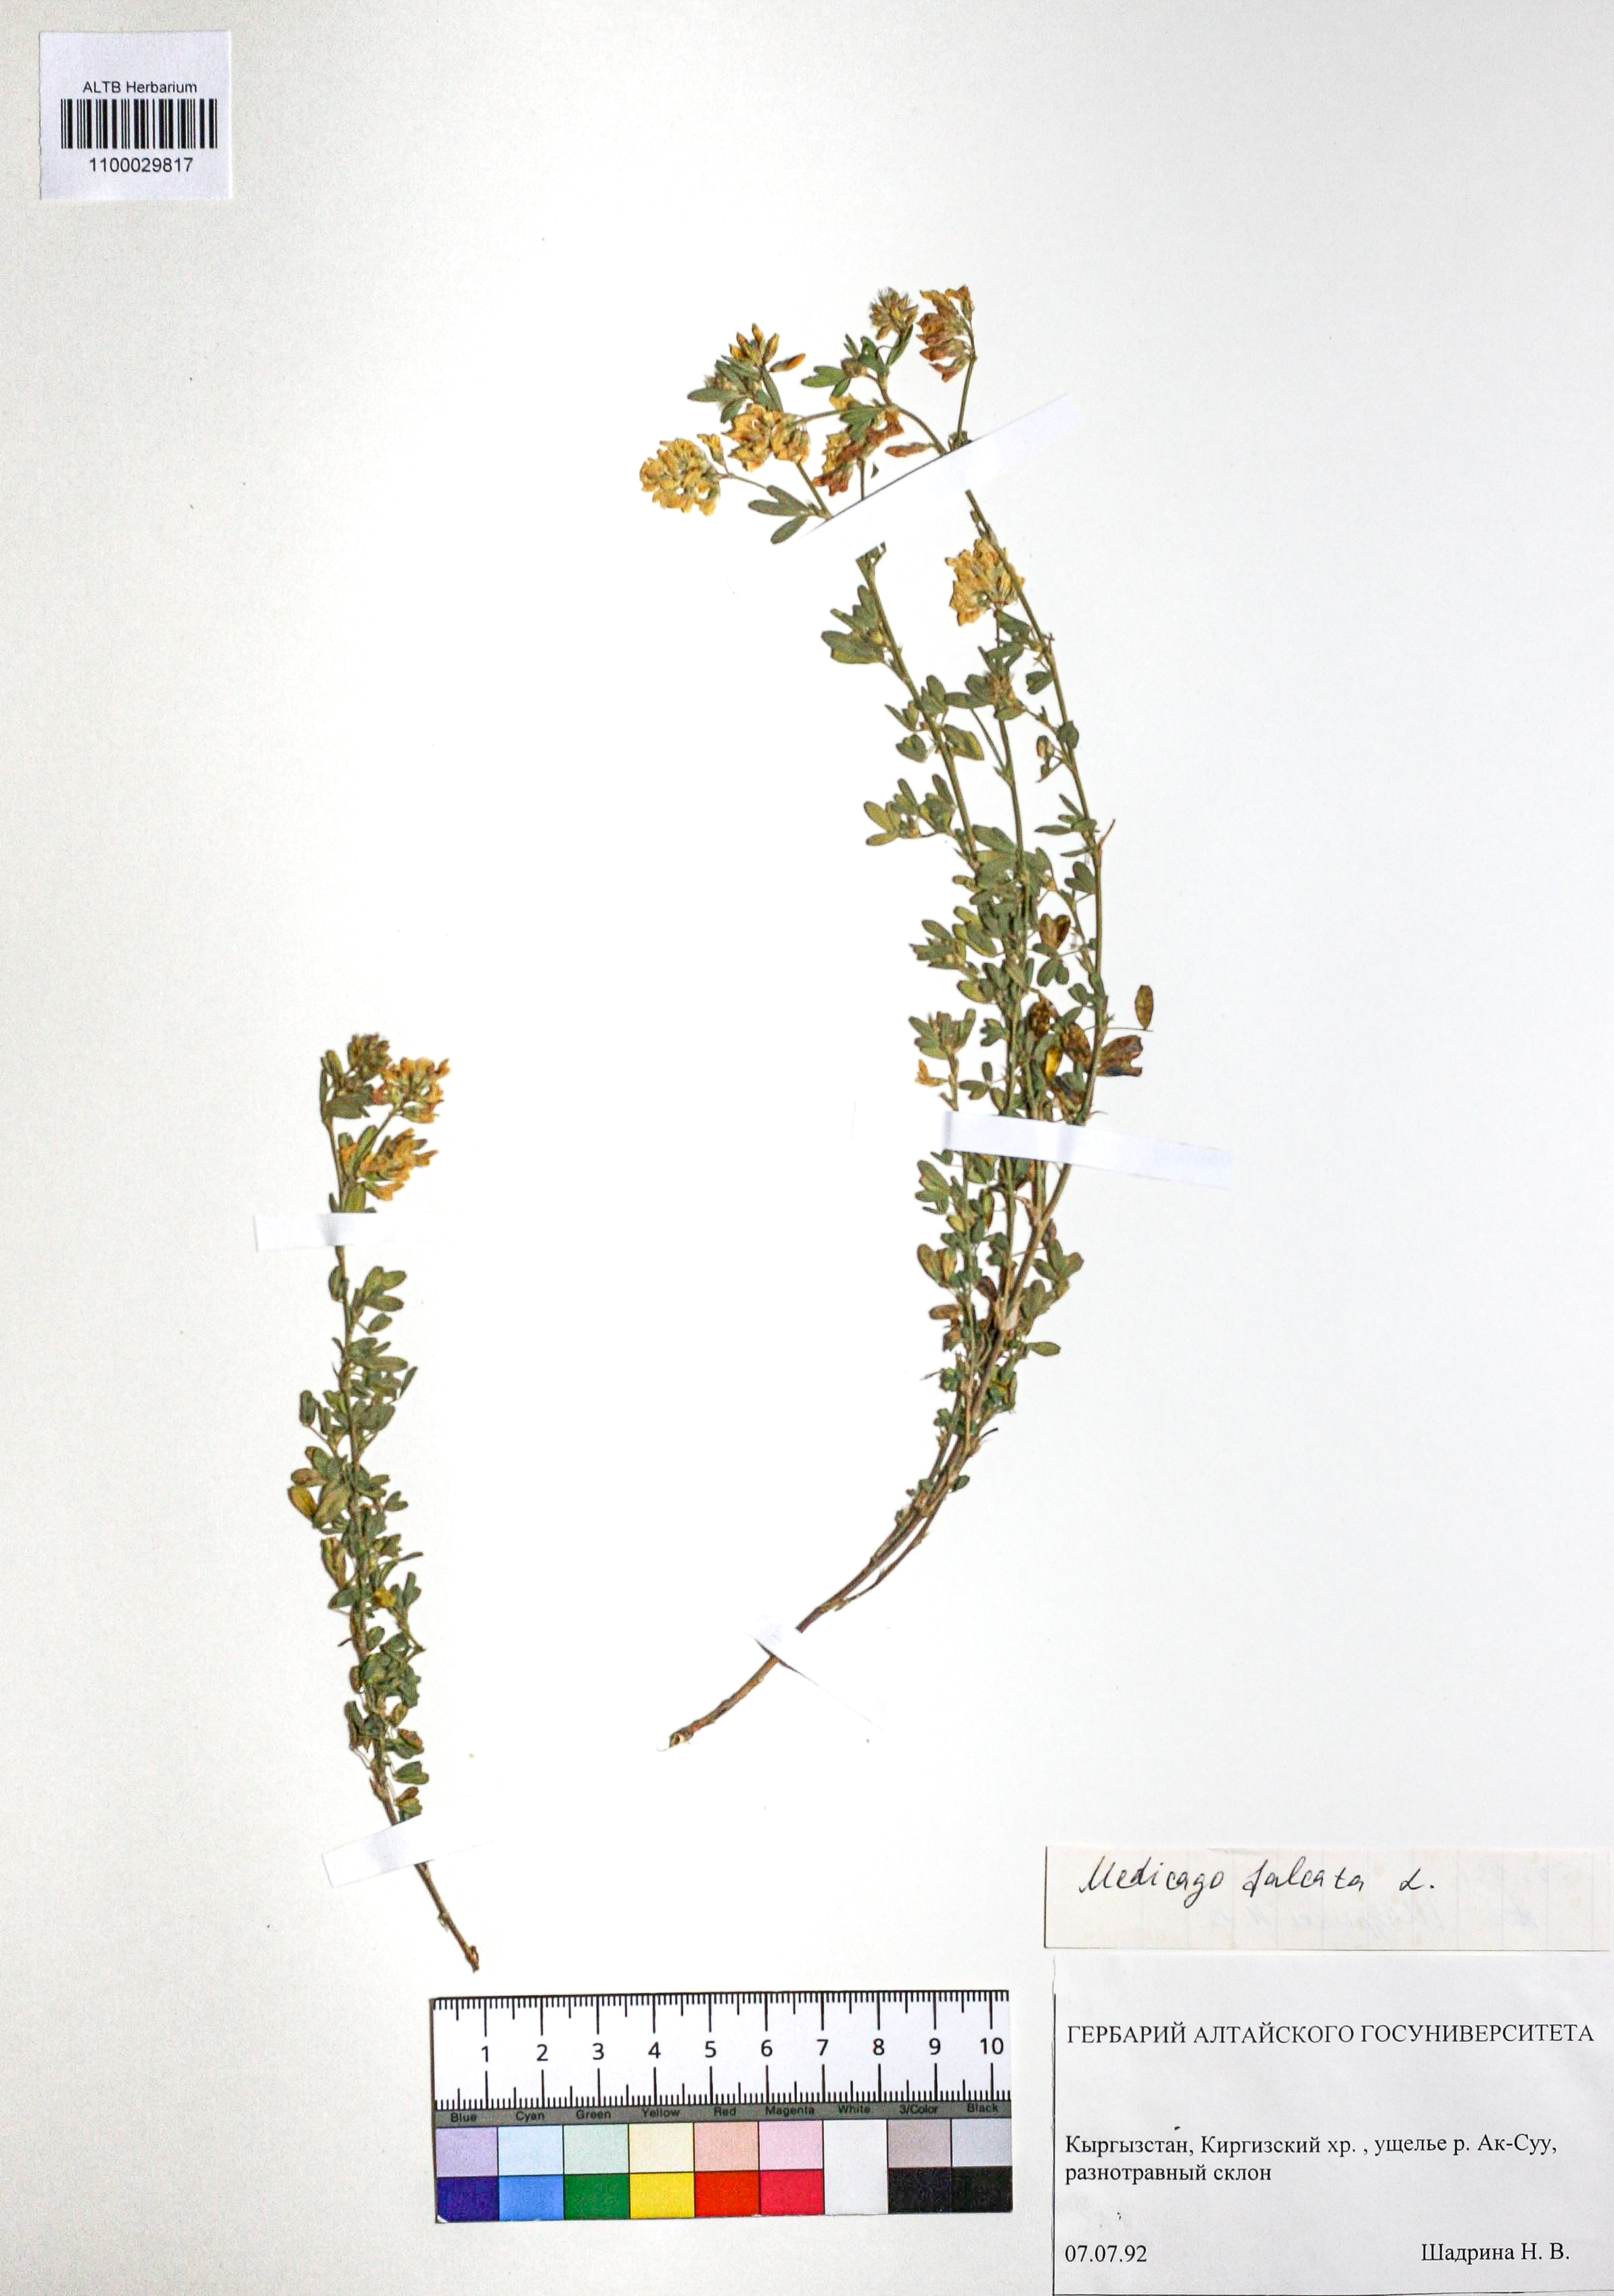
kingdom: Plantae
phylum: Tracheophyta
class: Magnoliopsida
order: Fabales
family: Fabaceae
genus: Medicago
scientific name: Medicago falcata
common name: Sickle medick
